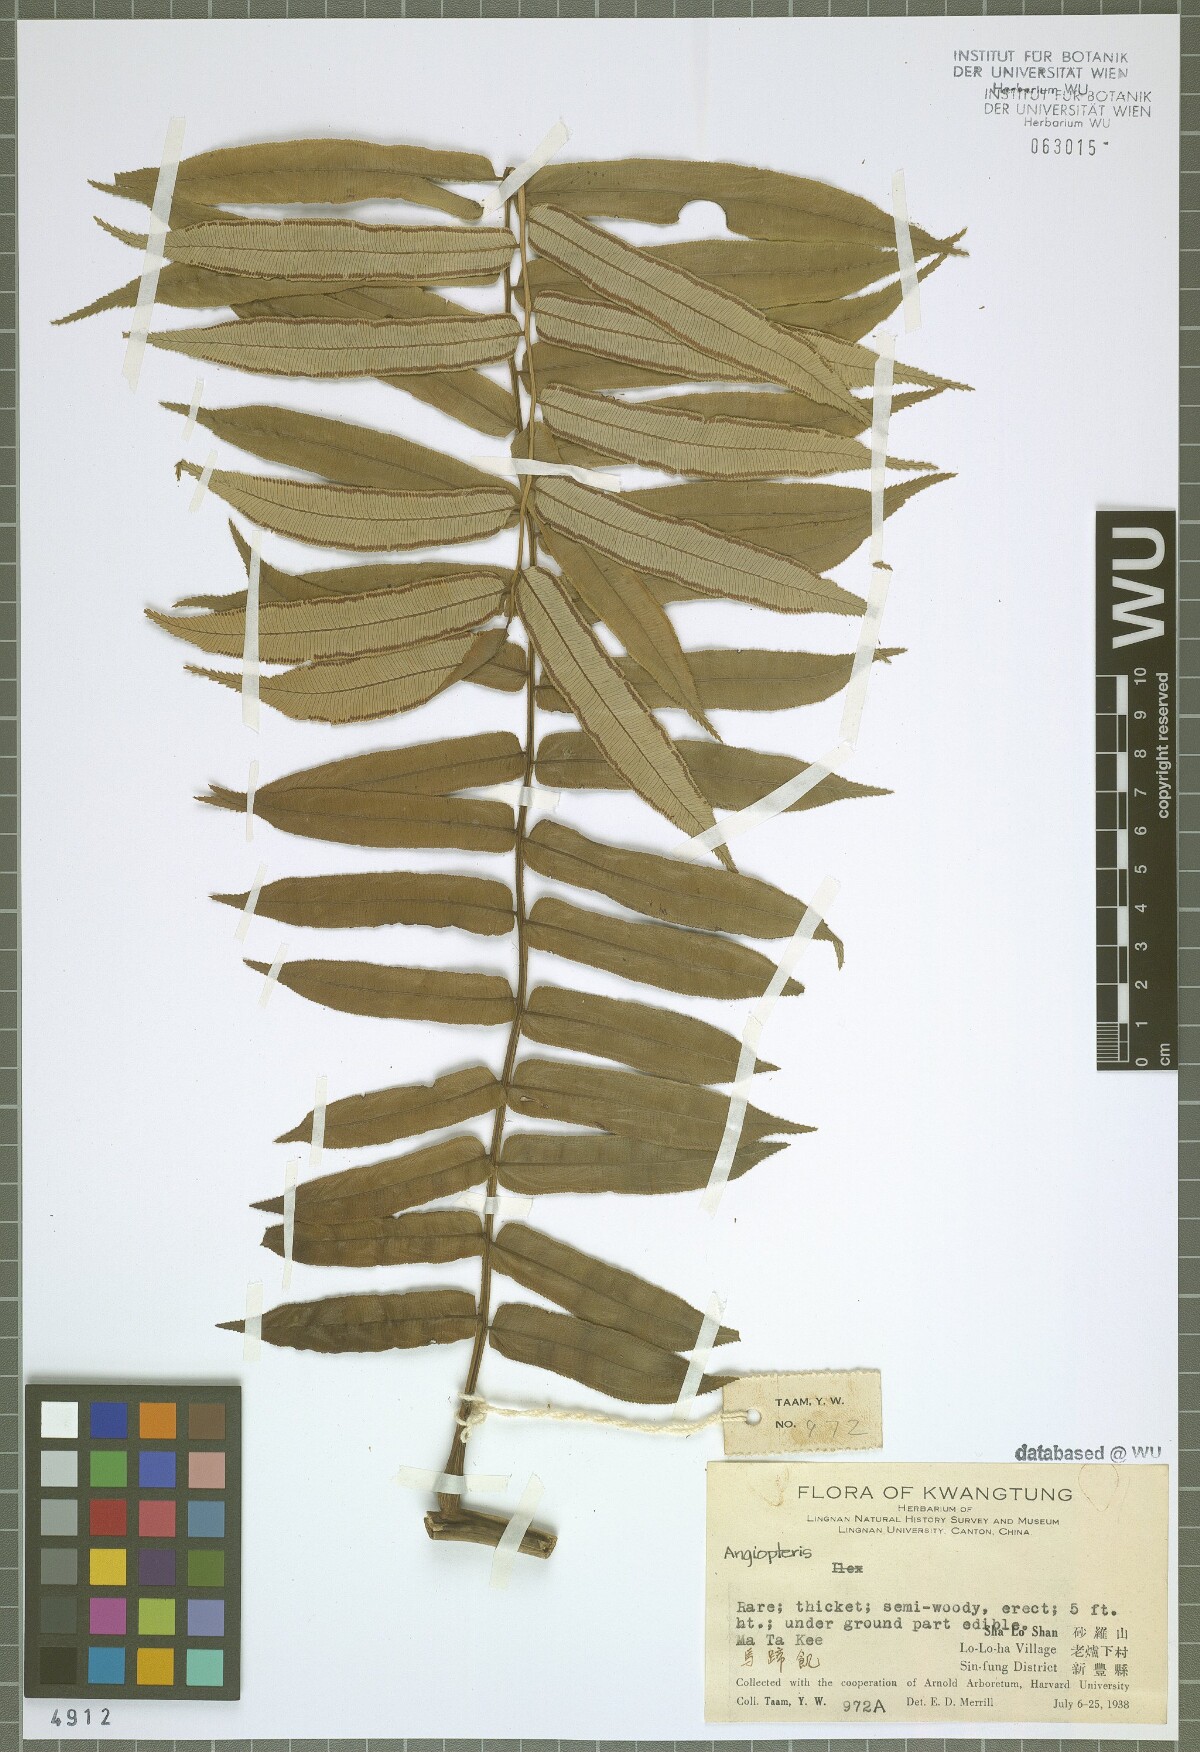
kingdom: Plantae
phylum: Tracheophyta
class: Polypodiopsida
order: Marattiales
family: Marattiaceae
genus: Angiopteris
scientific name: Angiopteris
